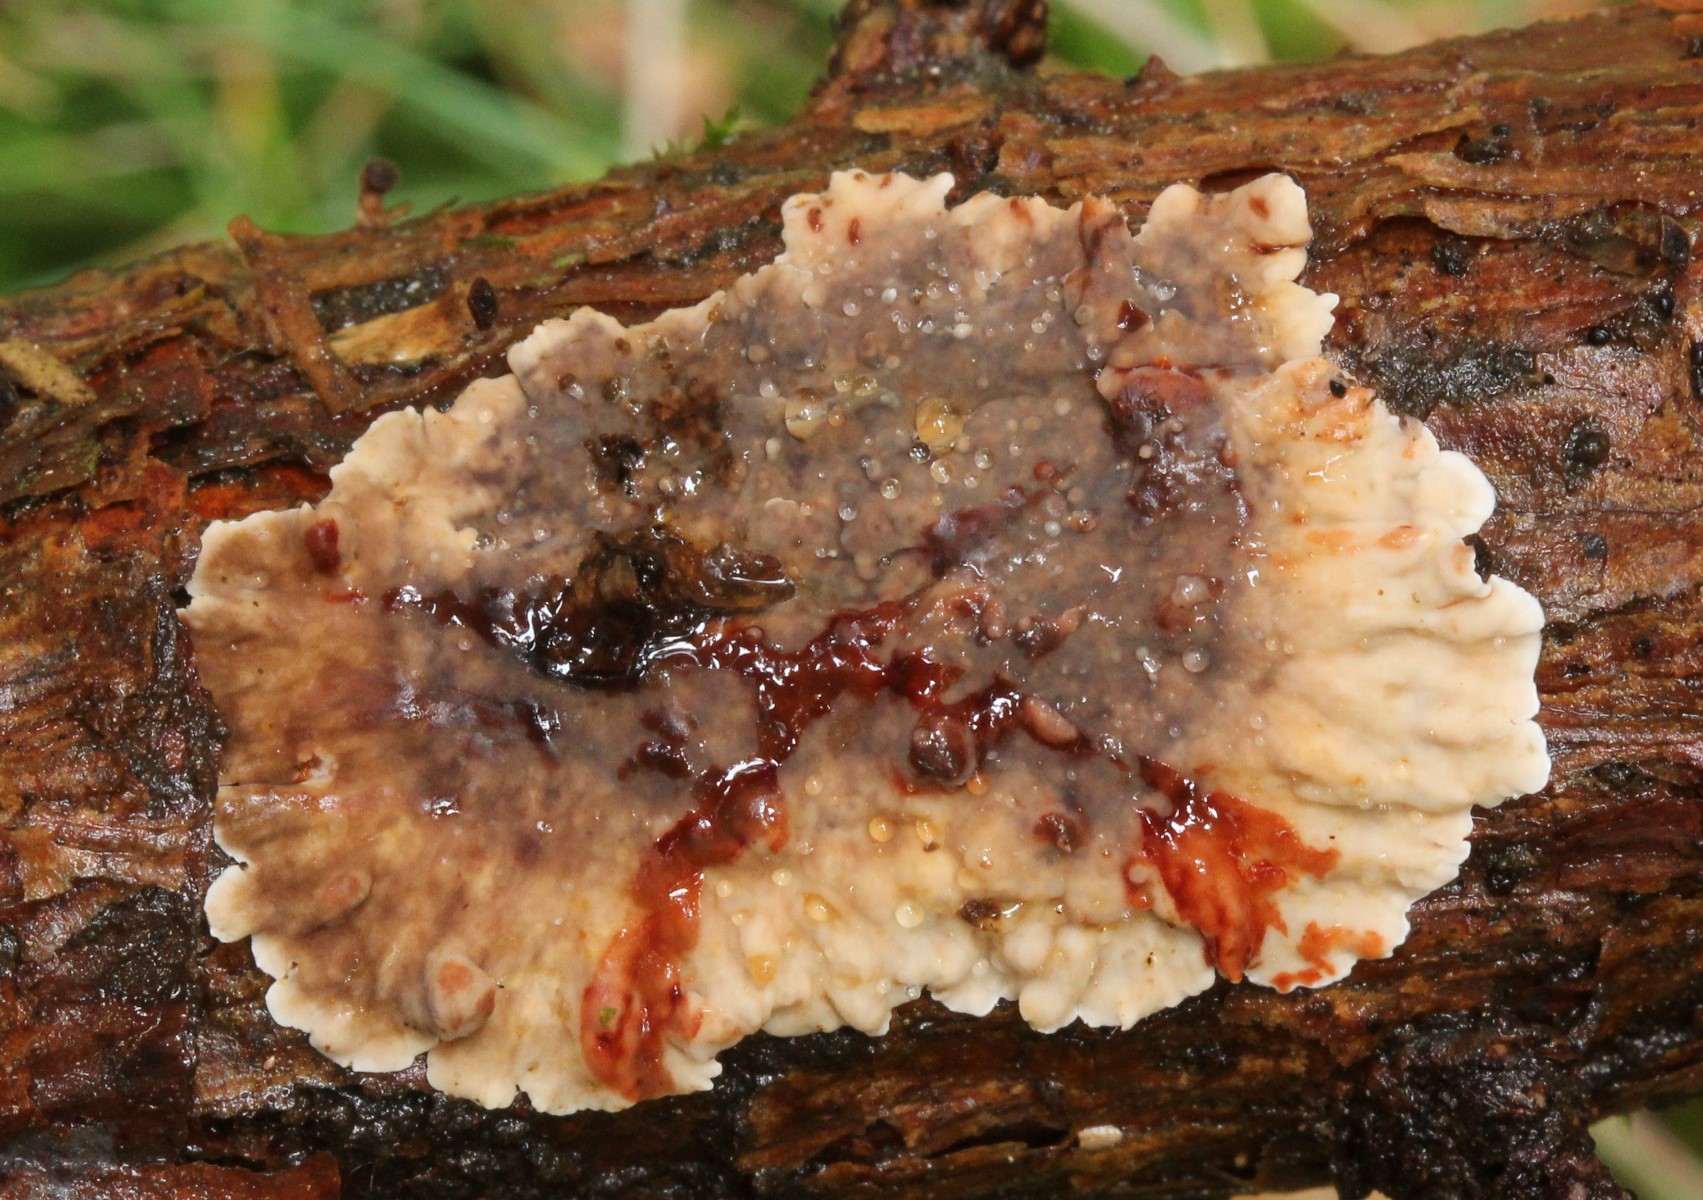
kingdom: Fungi
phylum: Basidiomycota
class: Agaricomycetes
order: Russulales
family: Stereaceae
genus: Stereum
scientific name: Stereum sanguinolentum
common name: blødende lædersvamp
